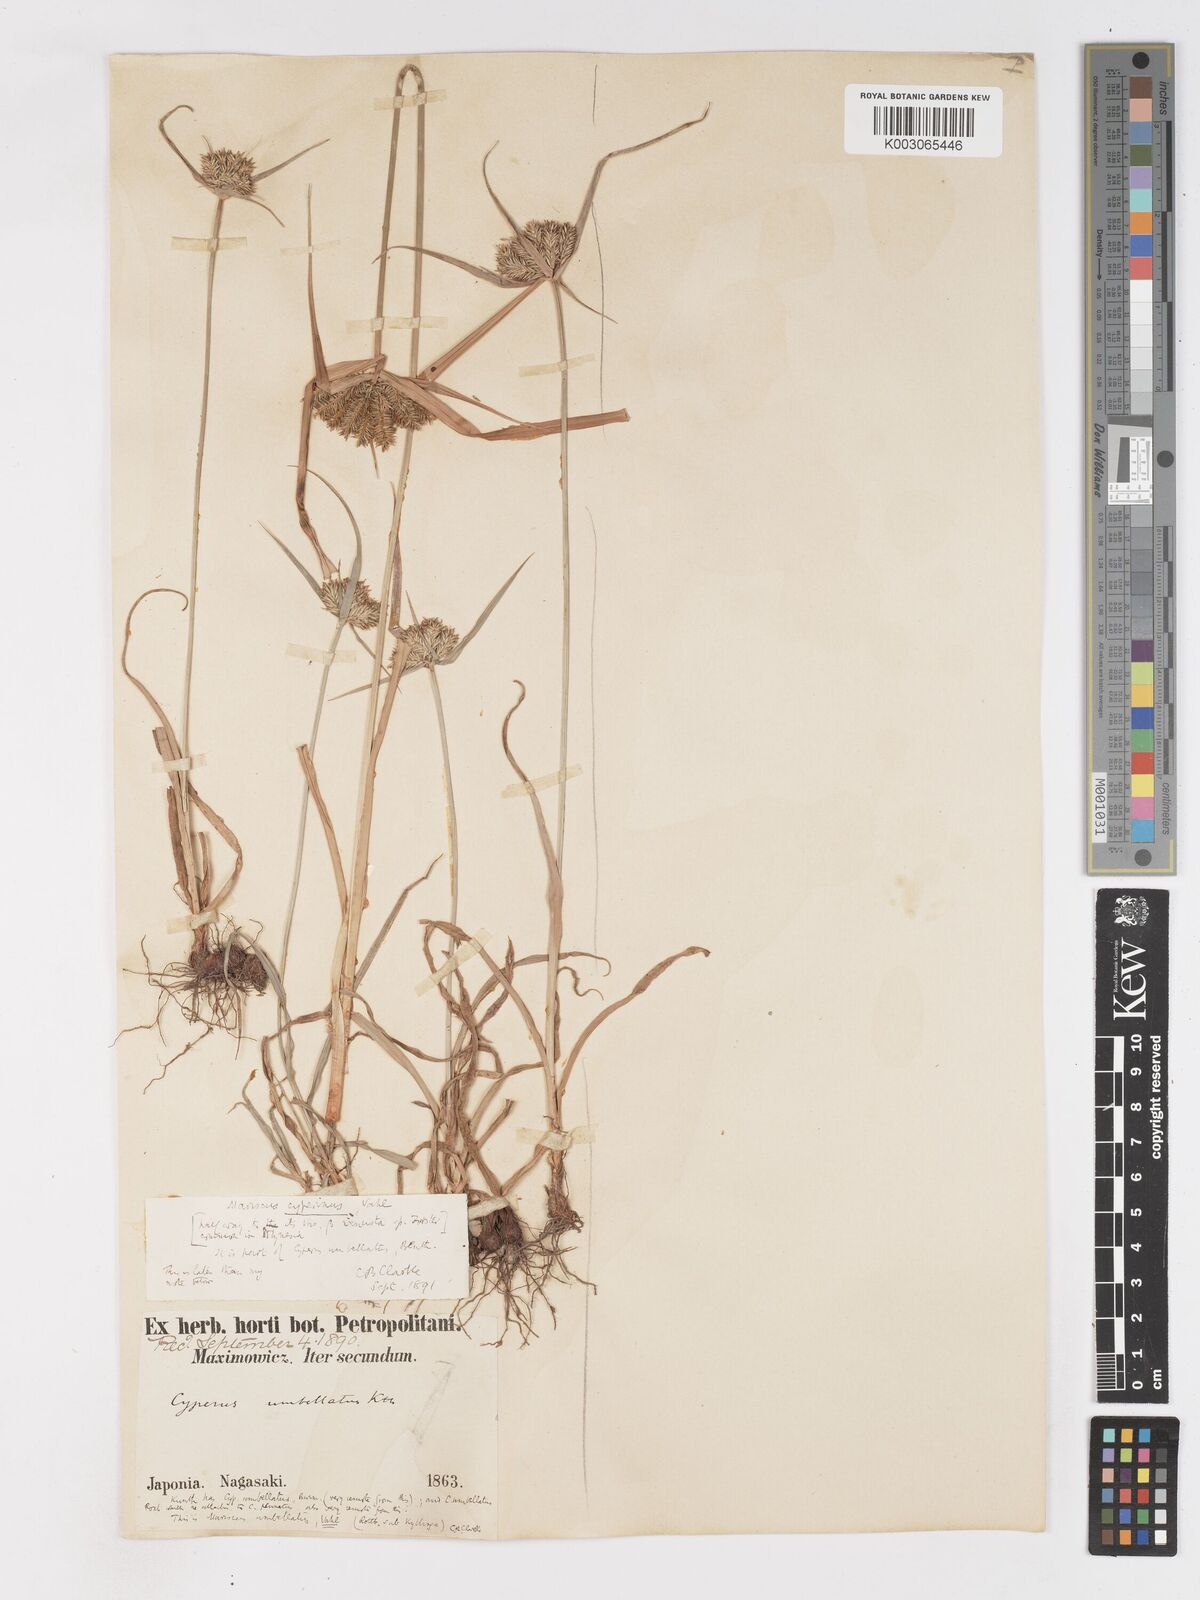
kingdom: Plantae
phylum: Tracheophyta
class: Liliopsida
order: Poales
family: Cyperaceae
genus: Cyperus
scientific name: Cyperus cyperinus
